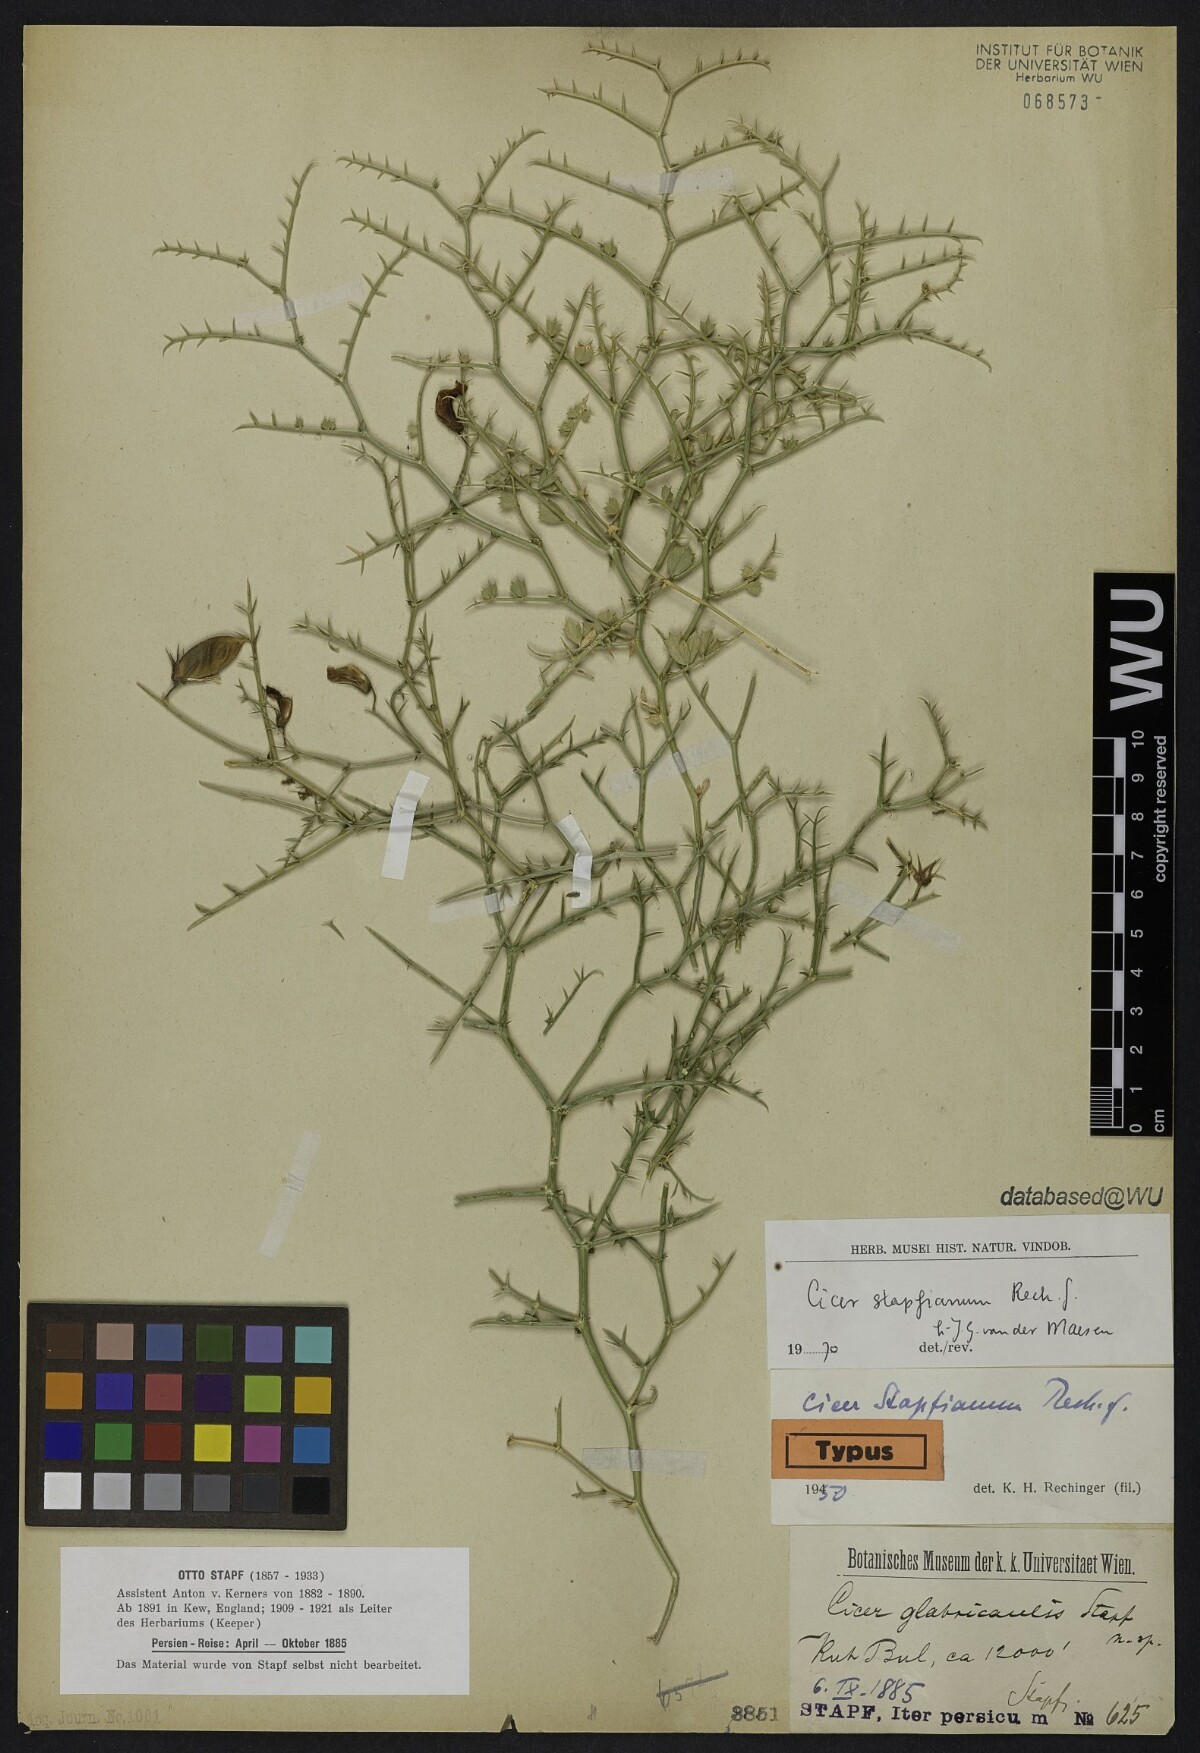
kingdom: Plantae
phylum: Tracheophyta
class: Magnoliopsida
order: Fabales
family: Fabaceae
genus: Cicer
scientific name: Cicer stapfianum
